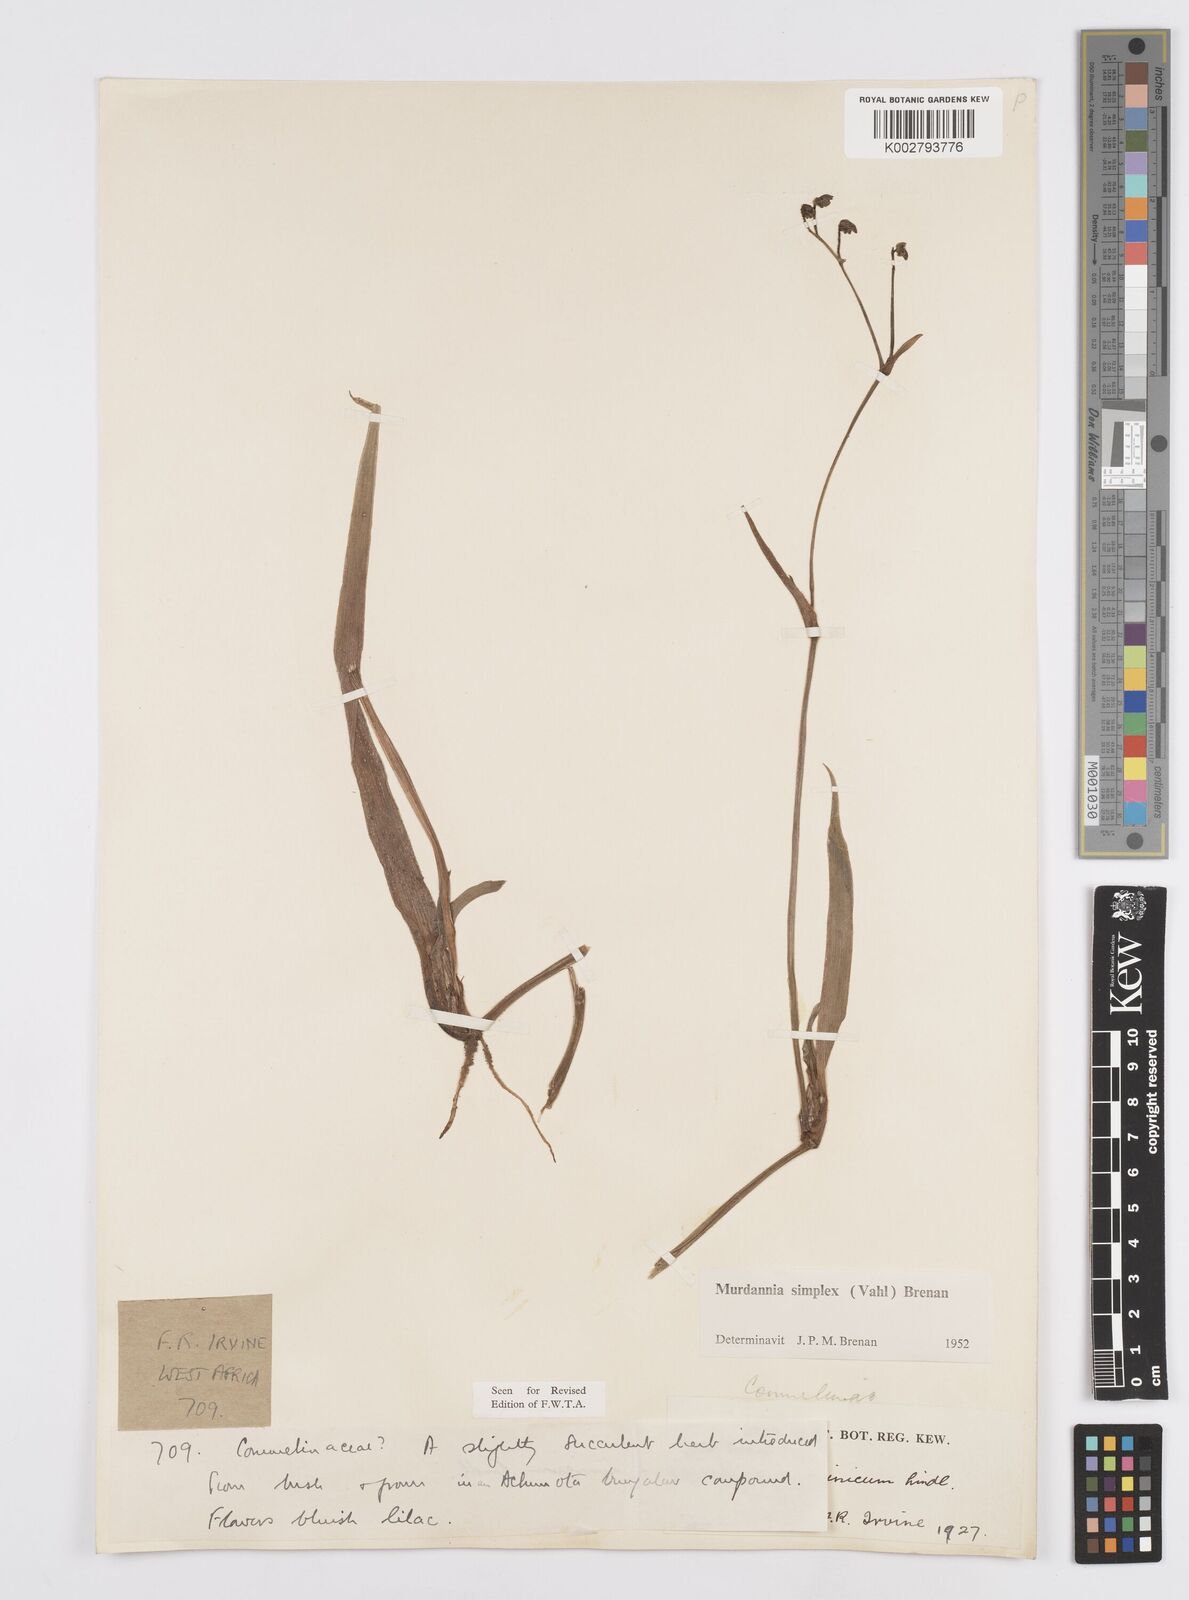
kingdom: Plantae
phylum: Tracheophyta
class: Liliopsida
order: Commelinales
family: Commelinaceae
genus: Murdannia
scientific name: Murdannia simplex
